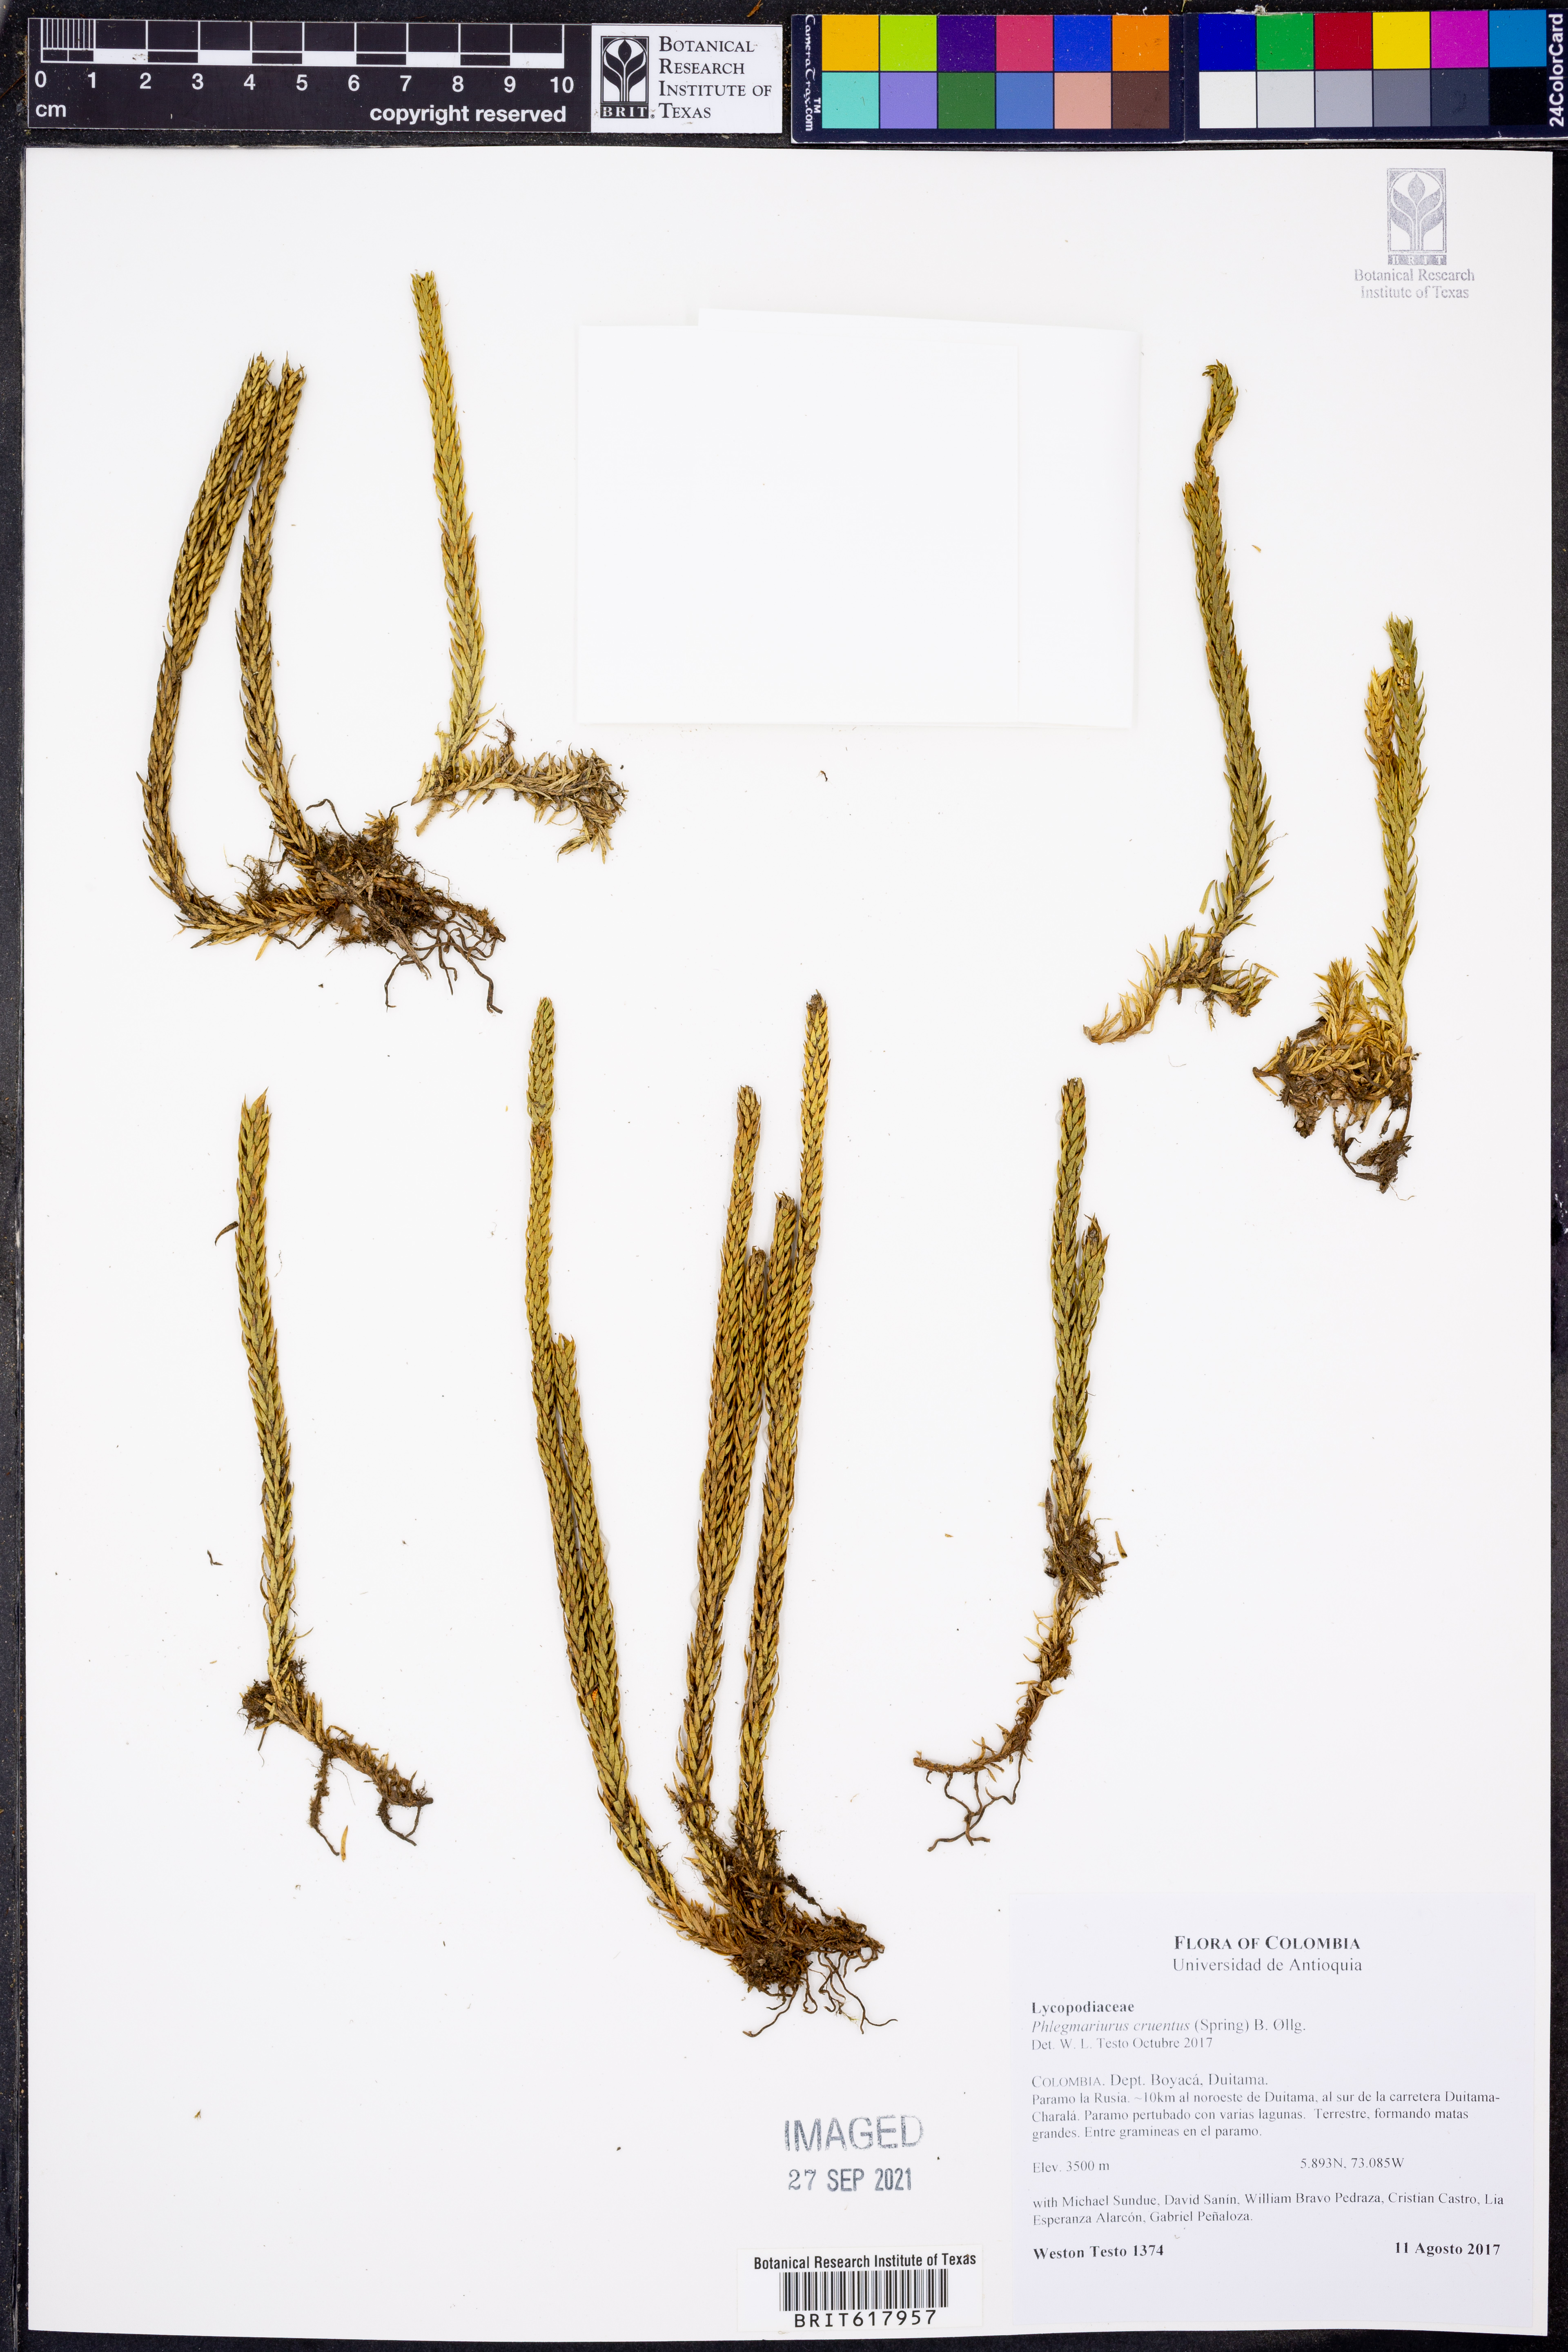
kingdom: Plantae
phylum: Tracheophyta
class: Lycopodiopsida
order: Lycopodiales
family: Lycopodiaceae
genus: Phlegmariurus
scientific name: Phlegmariurus cruentus
